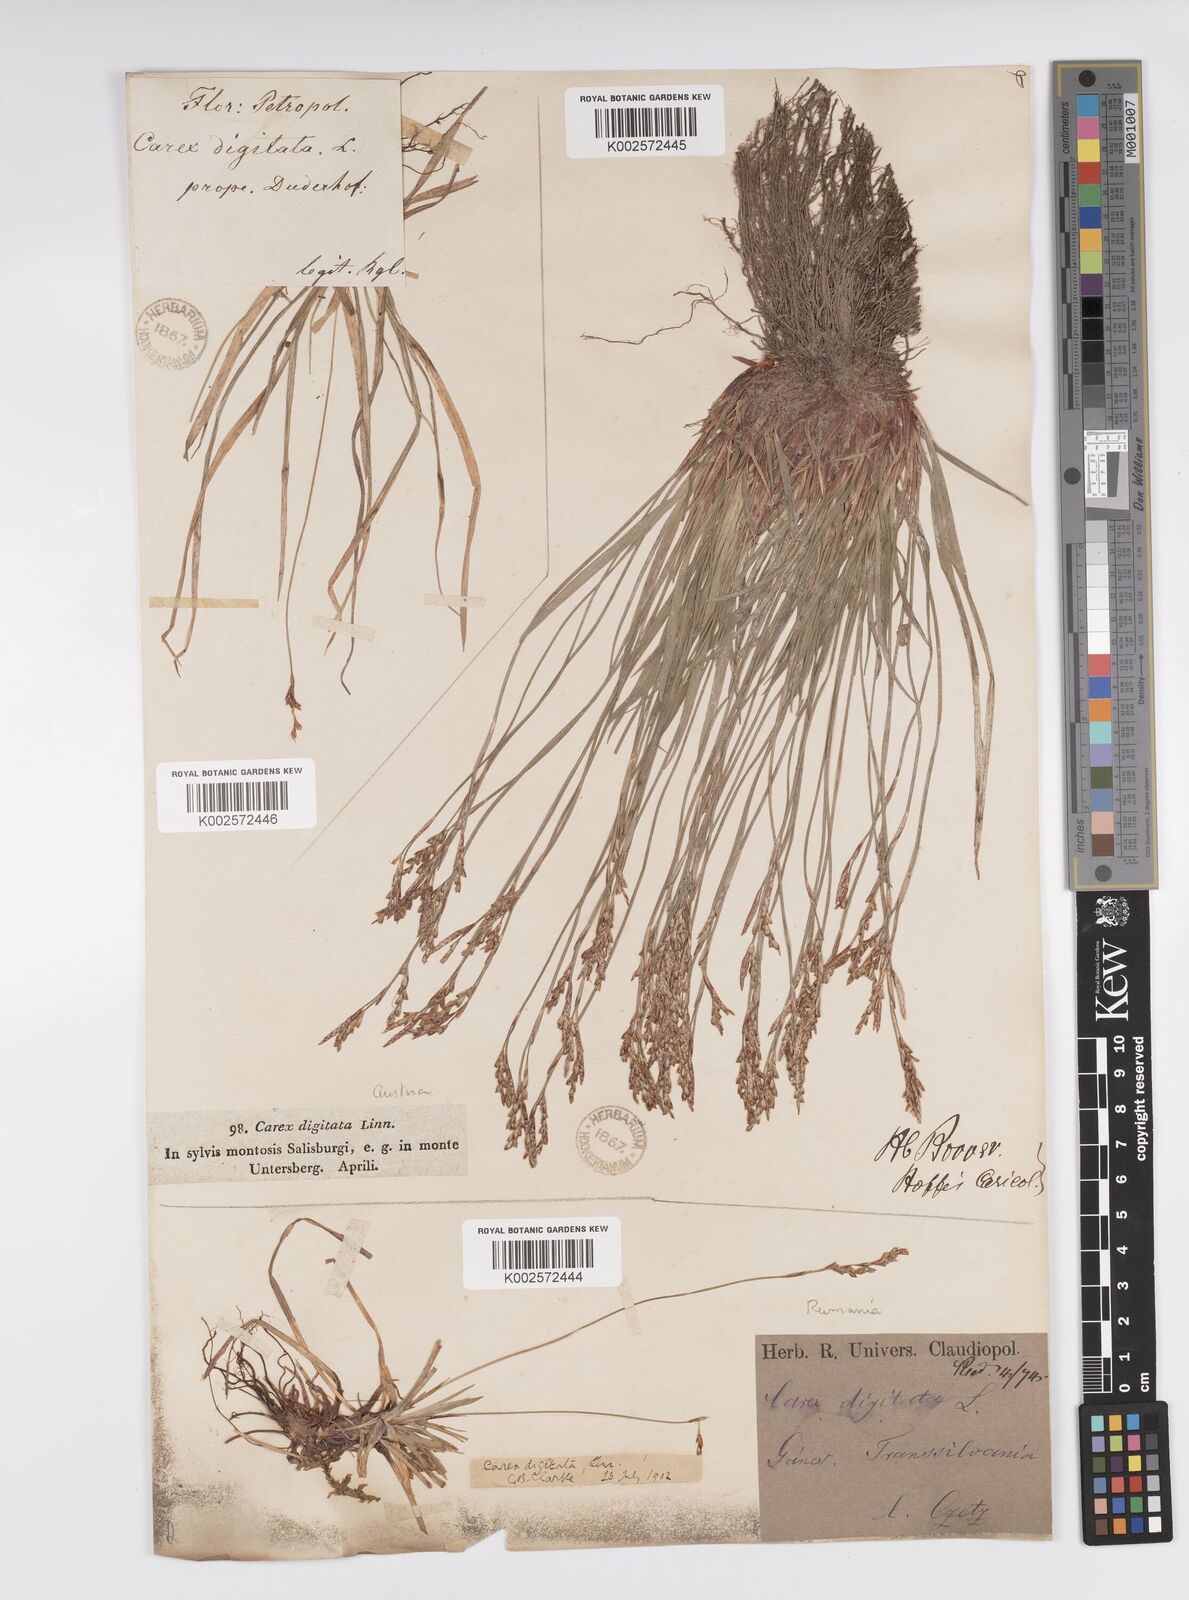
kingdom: Plantae
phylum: Tracheophyta
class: Liliopsida
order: Poales
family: Cyperaceae
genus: Carex
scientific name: Carex digitata
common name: Fingered sedge
